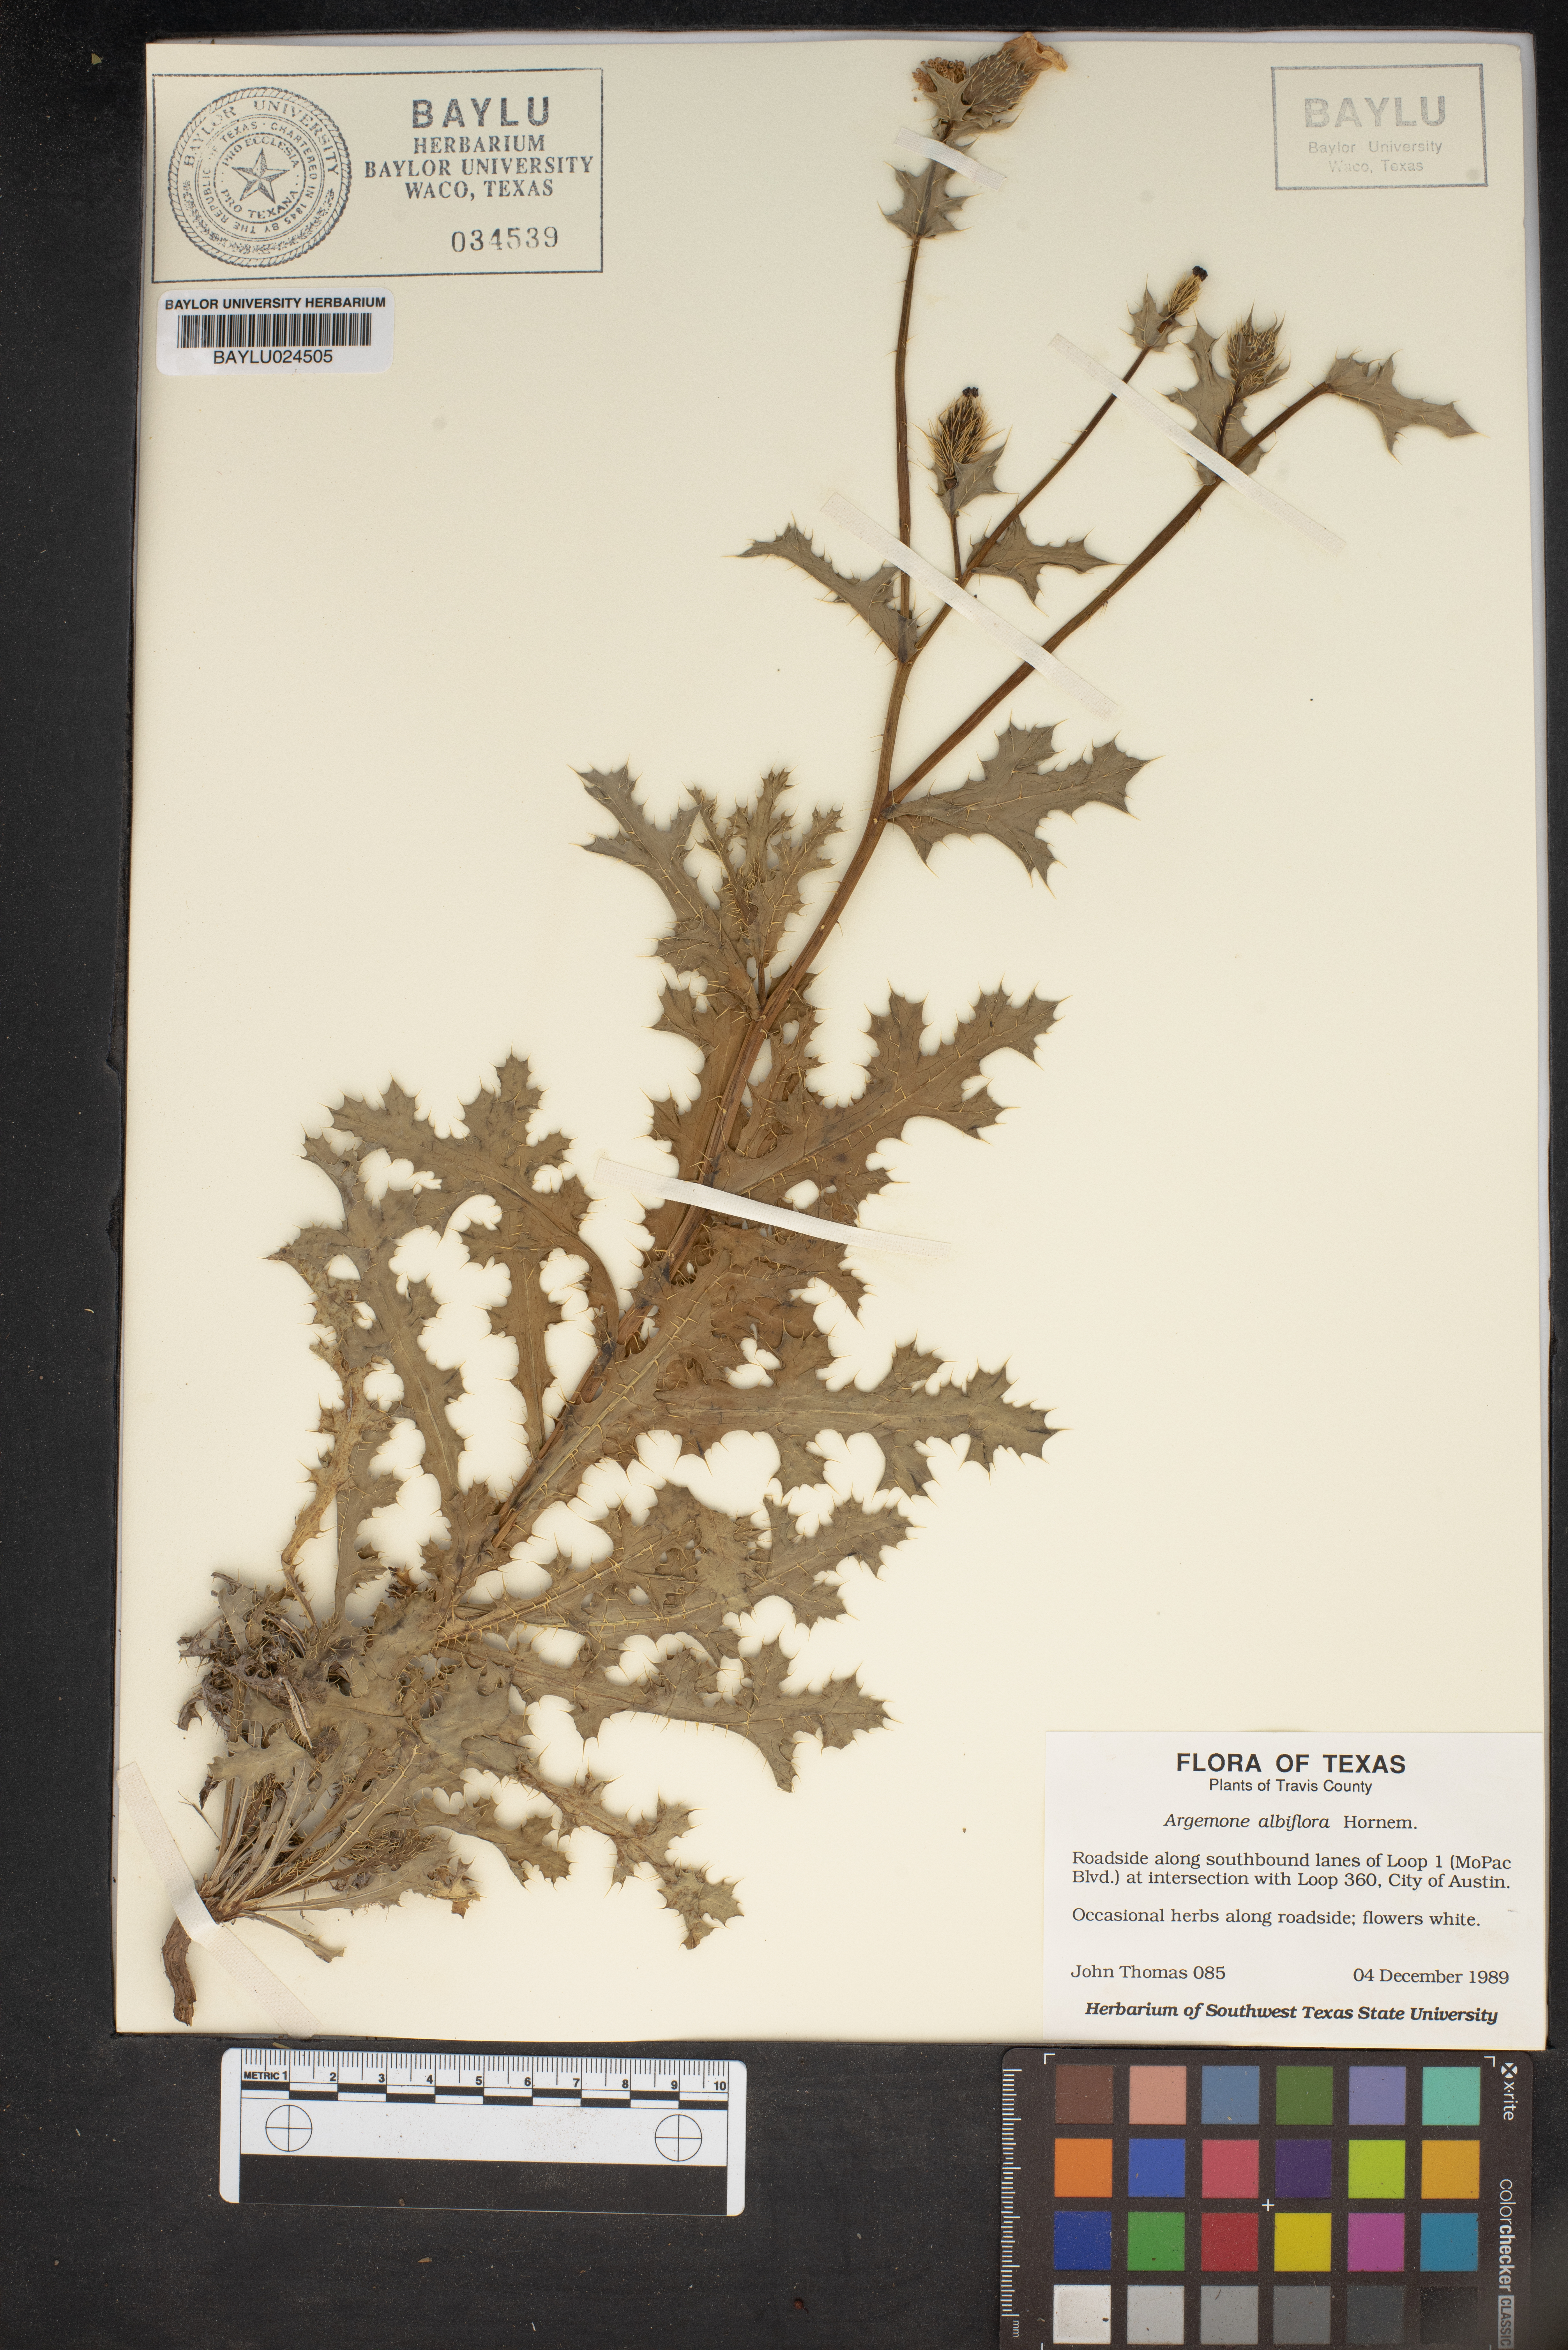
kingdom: Plantae
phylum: Tracheophyta
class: Magnoliopsida
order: Ranunculales
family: Papaveraceae
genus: Argemone
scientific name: Argemone albiflora
